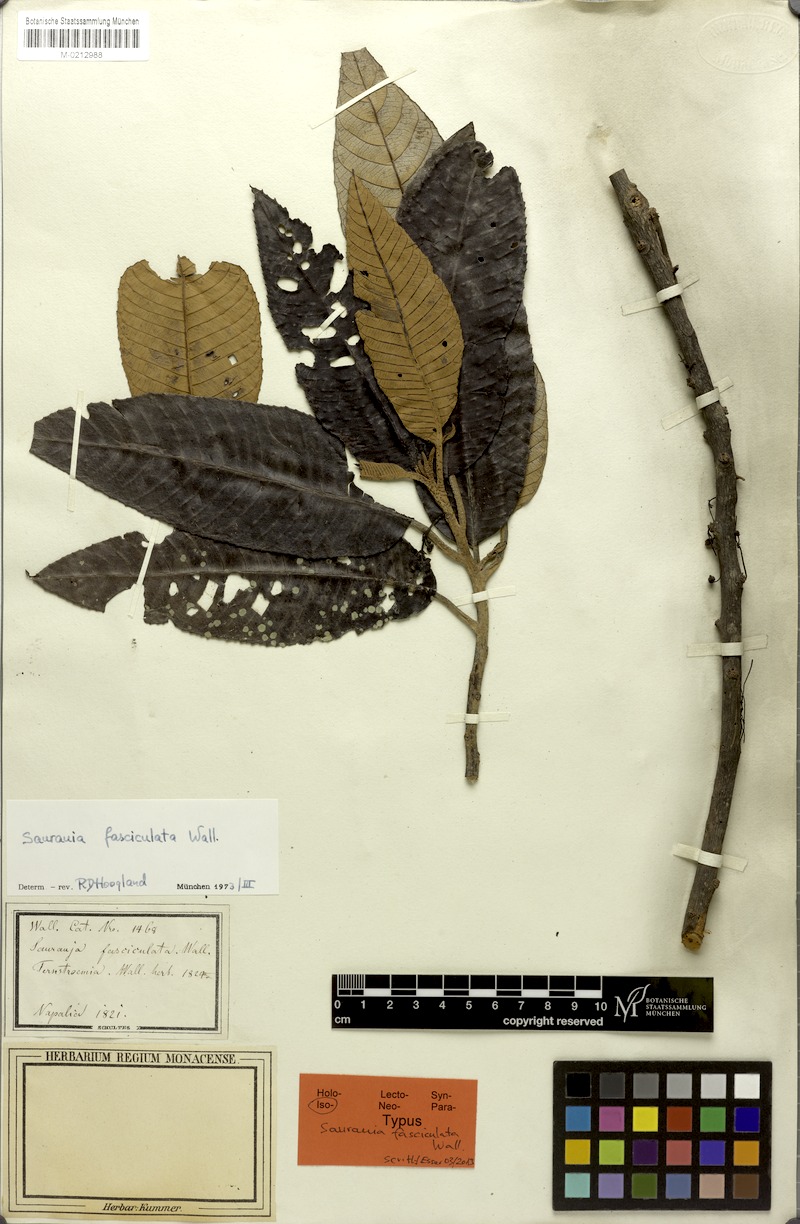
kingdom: Plantae
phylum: Tracheophyta
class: Magnoliopsida
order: Ericales
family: Actinidiaceae
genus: Saurauia
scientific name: Saurauia fasciculata
